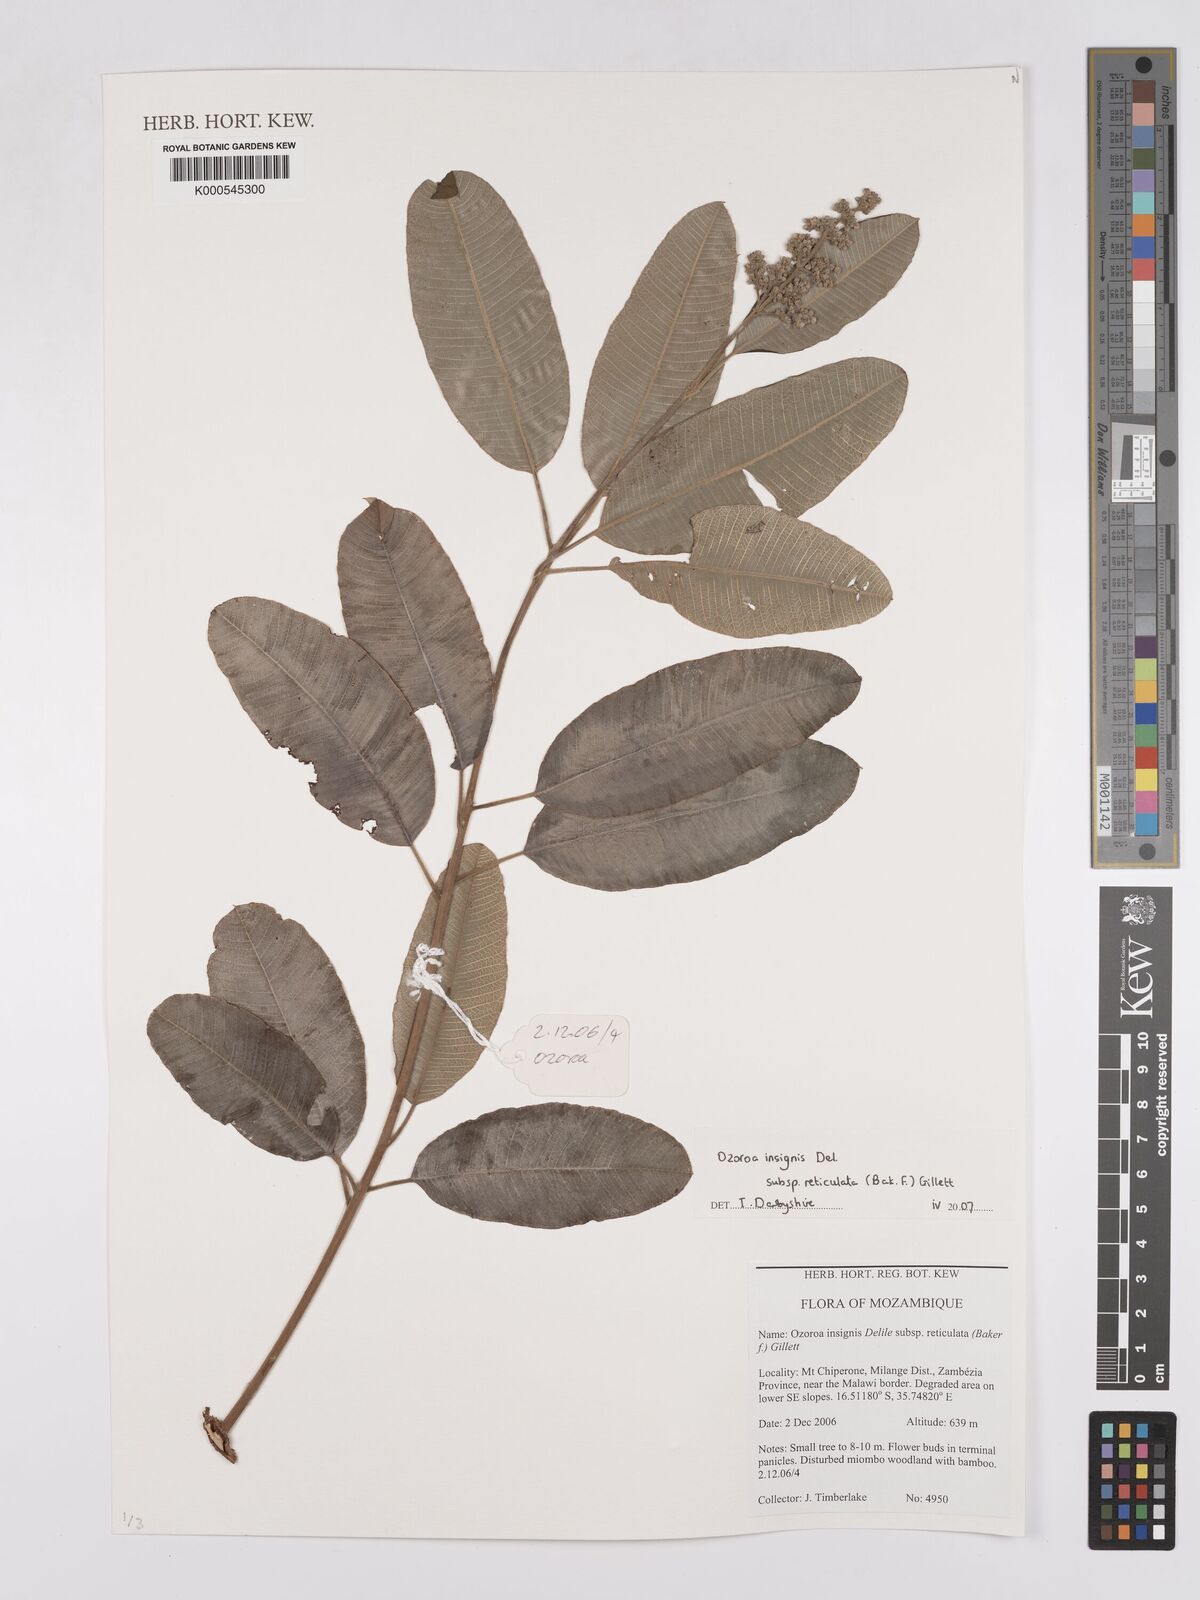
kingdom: Plantae
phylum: Tracheophyta
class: Magnoliopsida
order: Sapindales
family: Anacardiaceae
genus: Ozoroa
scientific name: Ozoroa insignis
